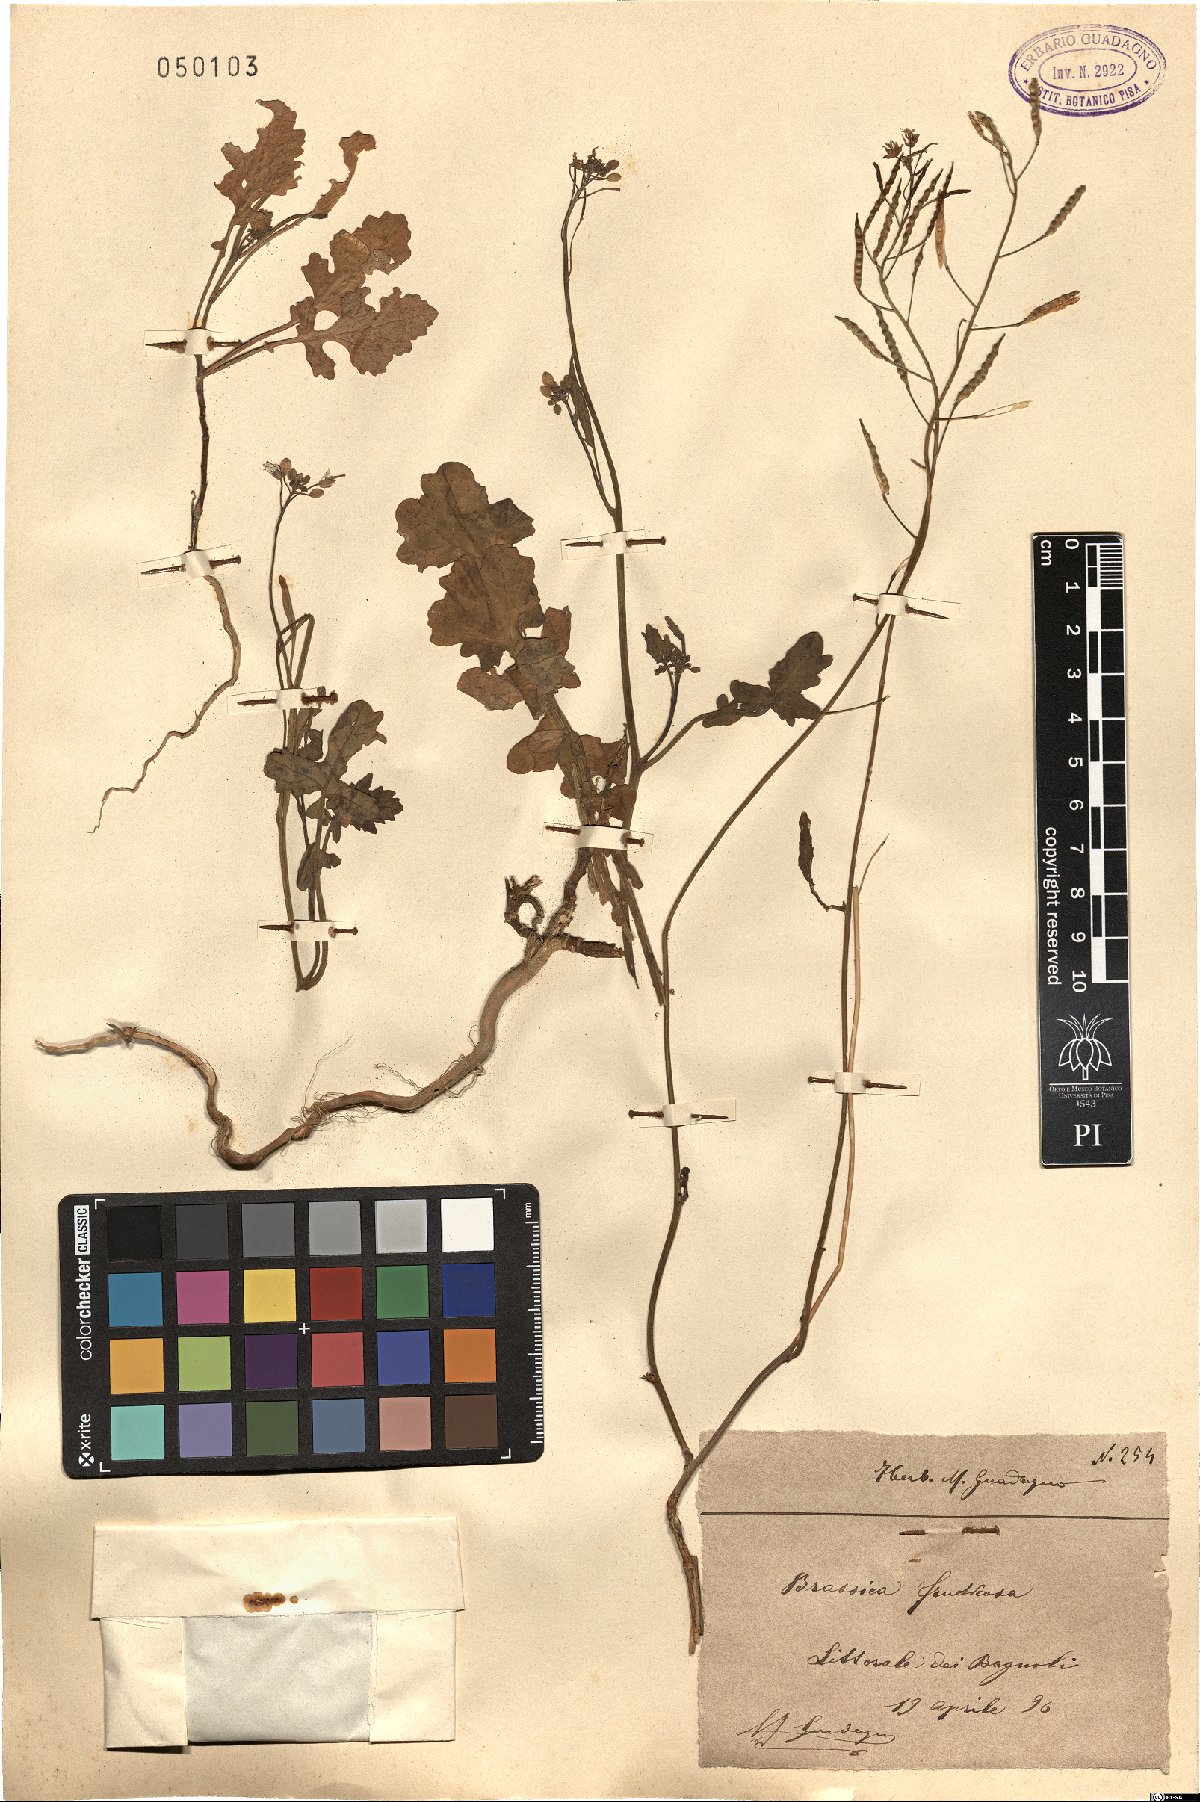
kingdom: Plantae
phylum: Tracheophyta
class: Magnoliopsida
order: Brassicales
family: Brassicaceae
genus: Brassica
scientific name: Brassica fruticulosa
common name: Twiggy turnip
